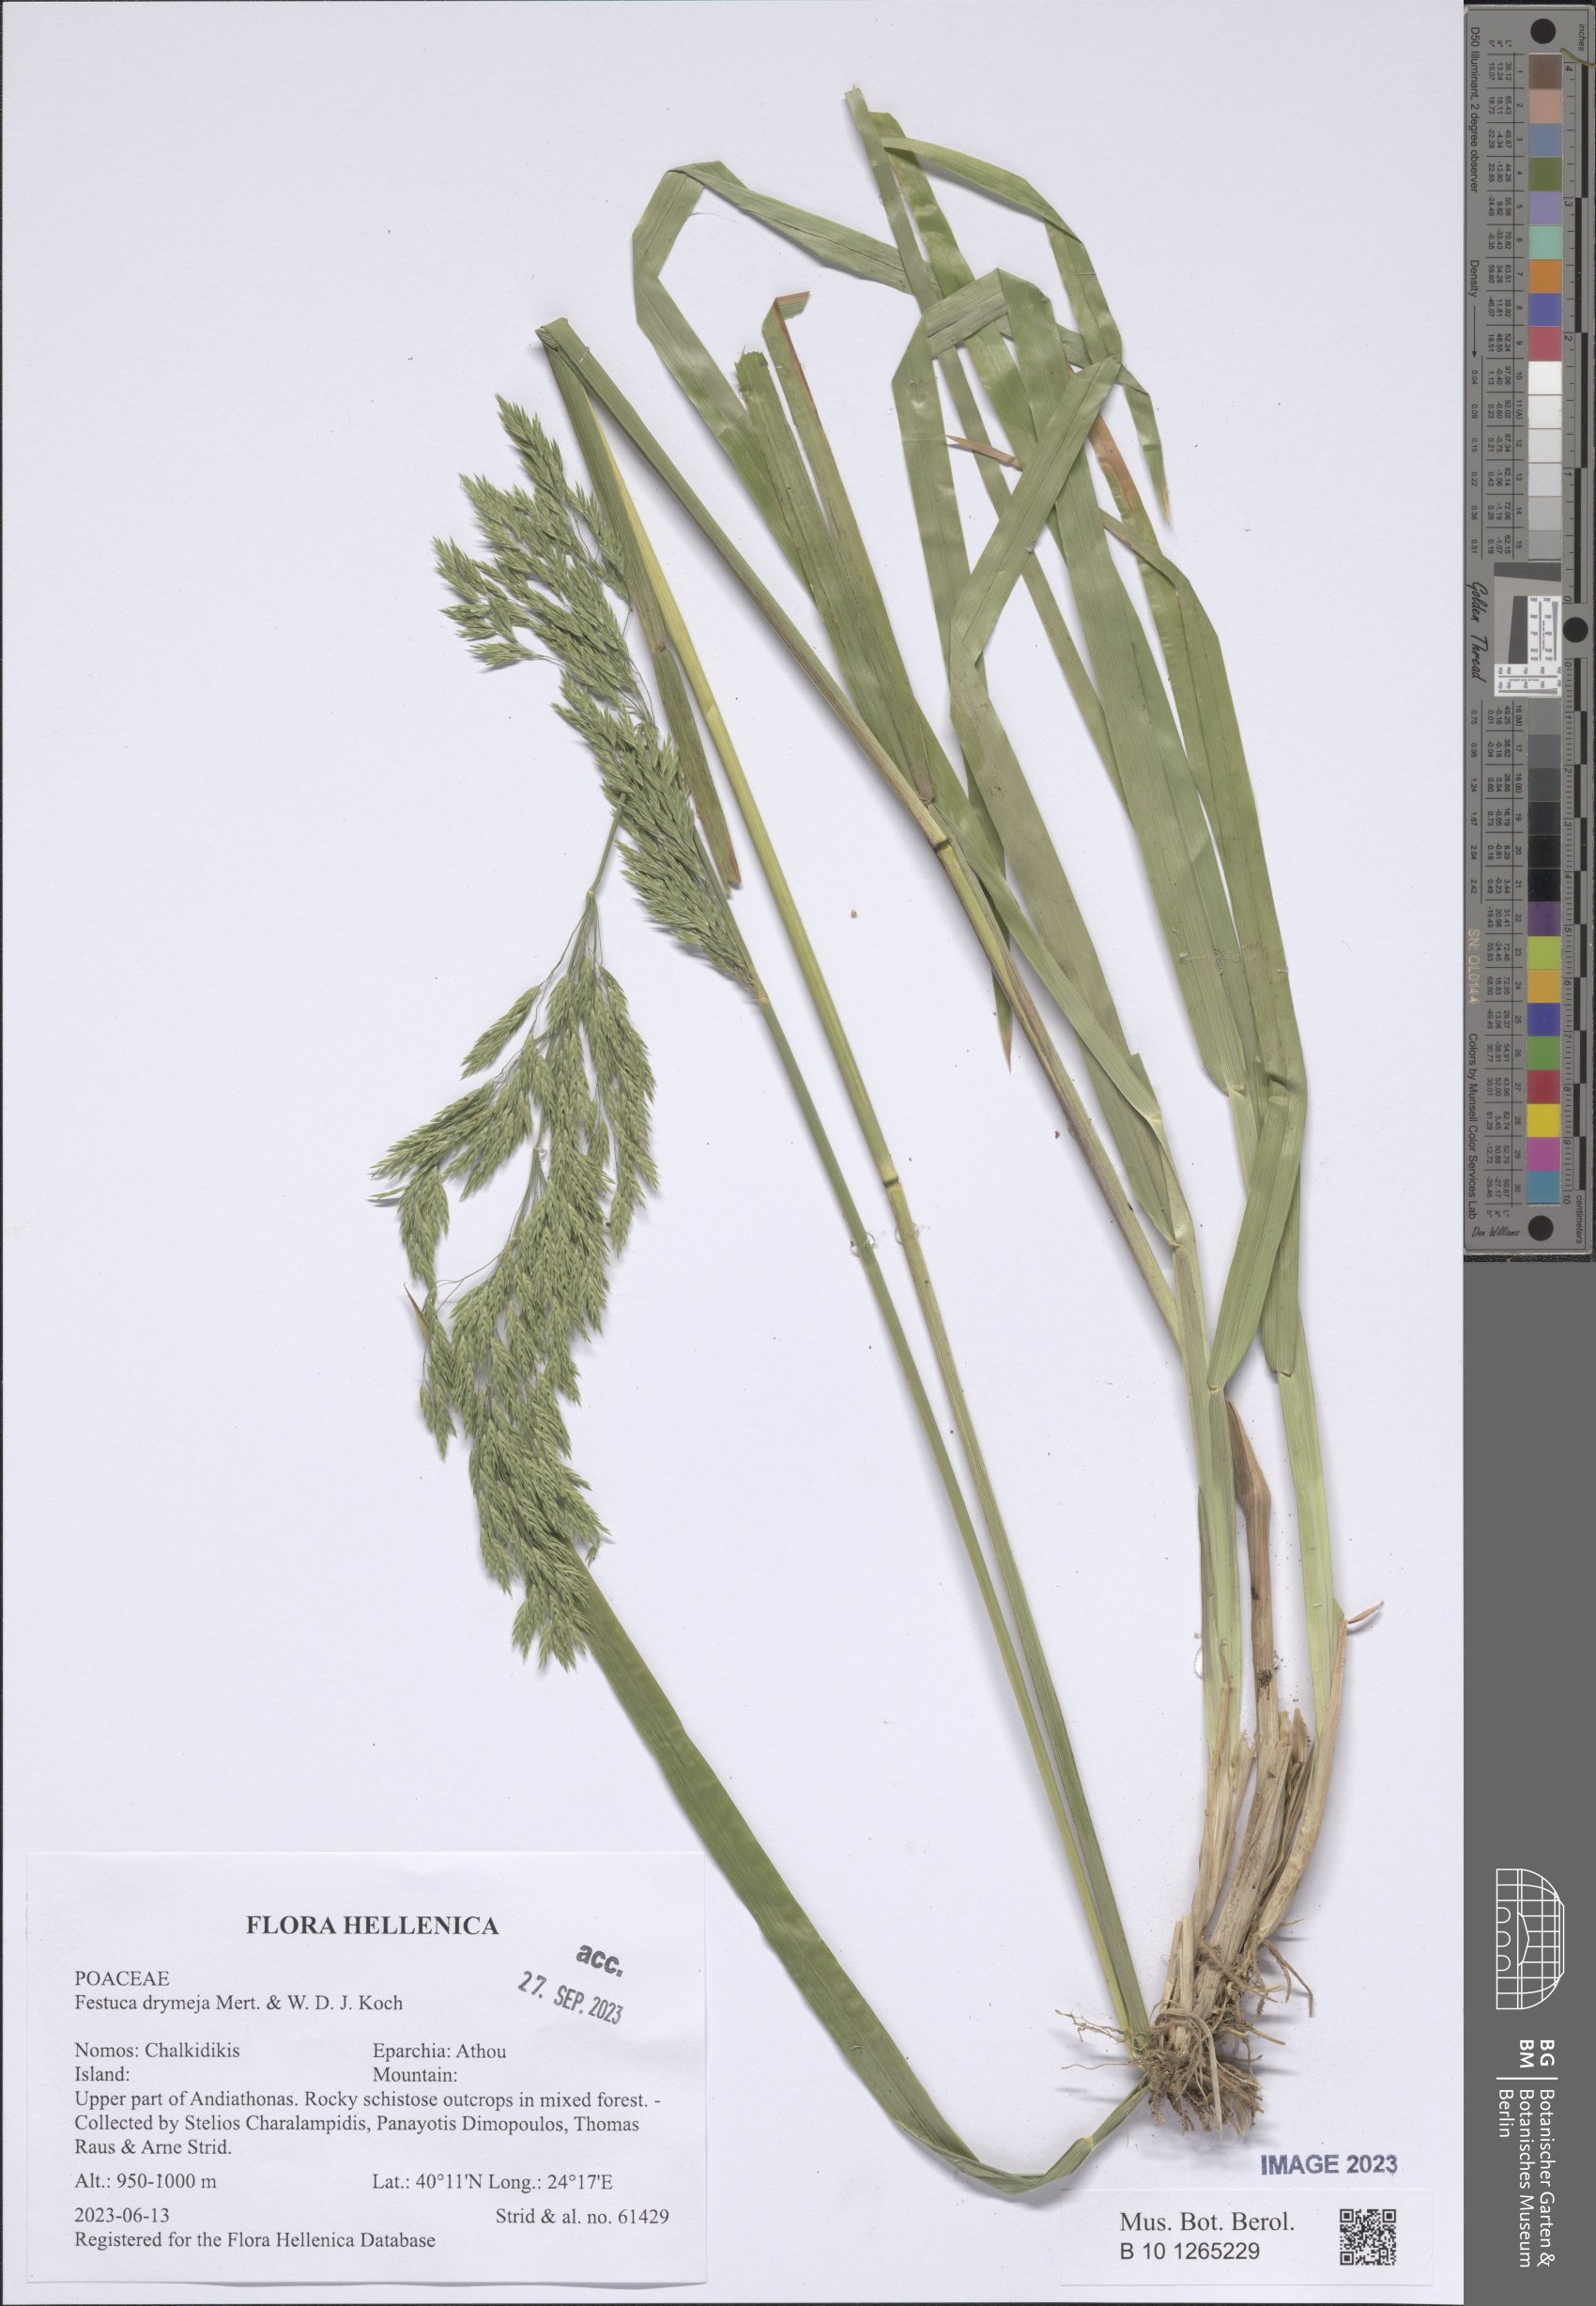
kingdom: Plantae
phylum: Tracheophyta
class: Liliopsida
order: Poales
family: Poaceae
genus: Festuca
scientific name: Festuca drymeja
